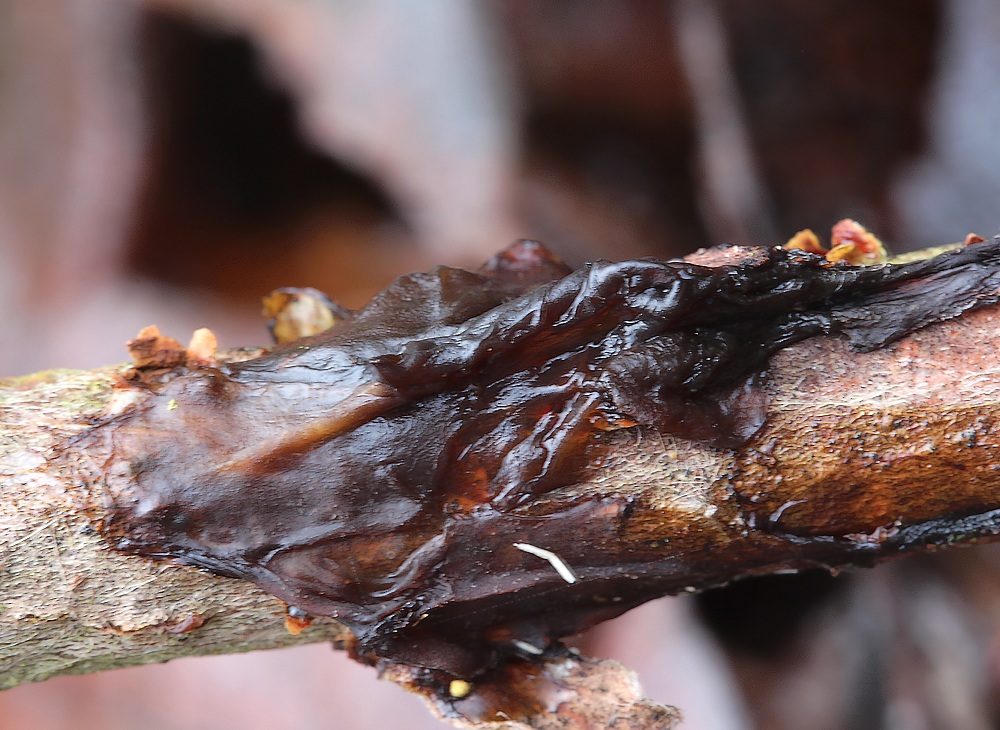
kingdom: Fungi
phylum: Basidiomycota
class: Agaricomycetes
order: Auriculariales
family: Auriculariaceae
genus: Exidia
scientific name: Exidia recisa
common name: pile-bævretop
